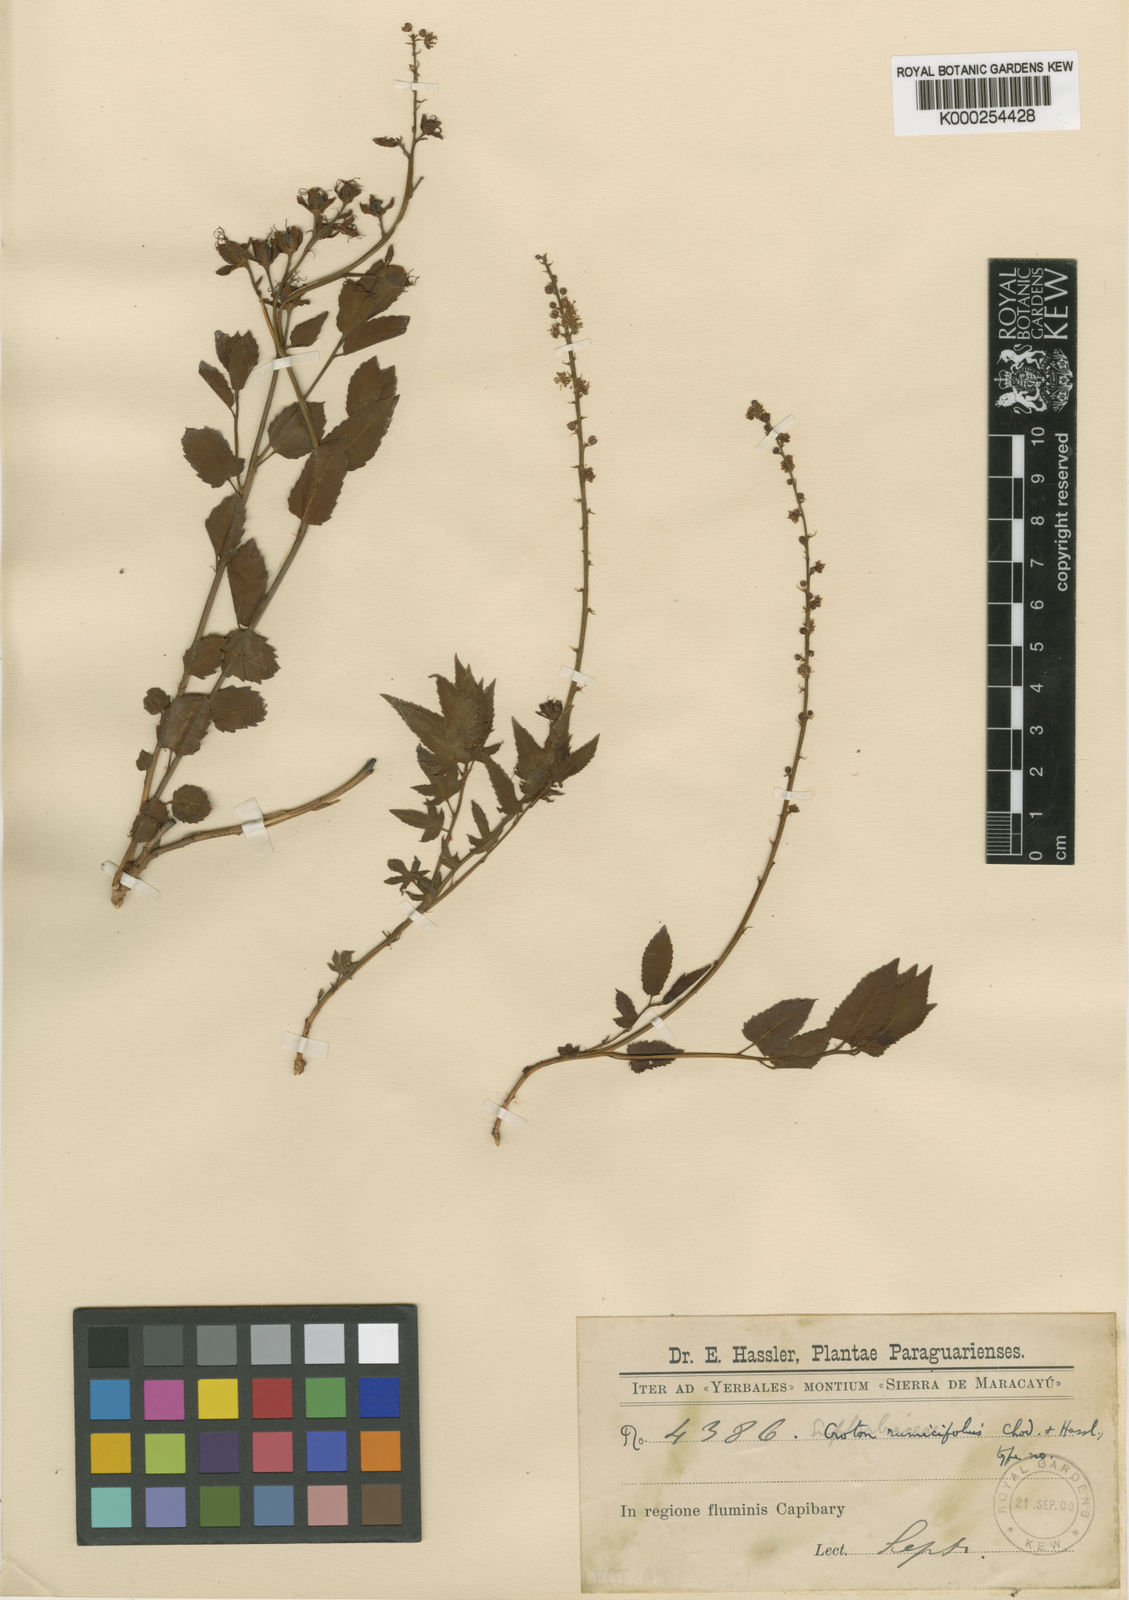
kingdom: Plantae
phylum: Tracheophyta
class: Magnoliopsida
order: Malpighiales
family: Euphorbiaceae
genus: Astraea
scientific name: Astraea cincta
